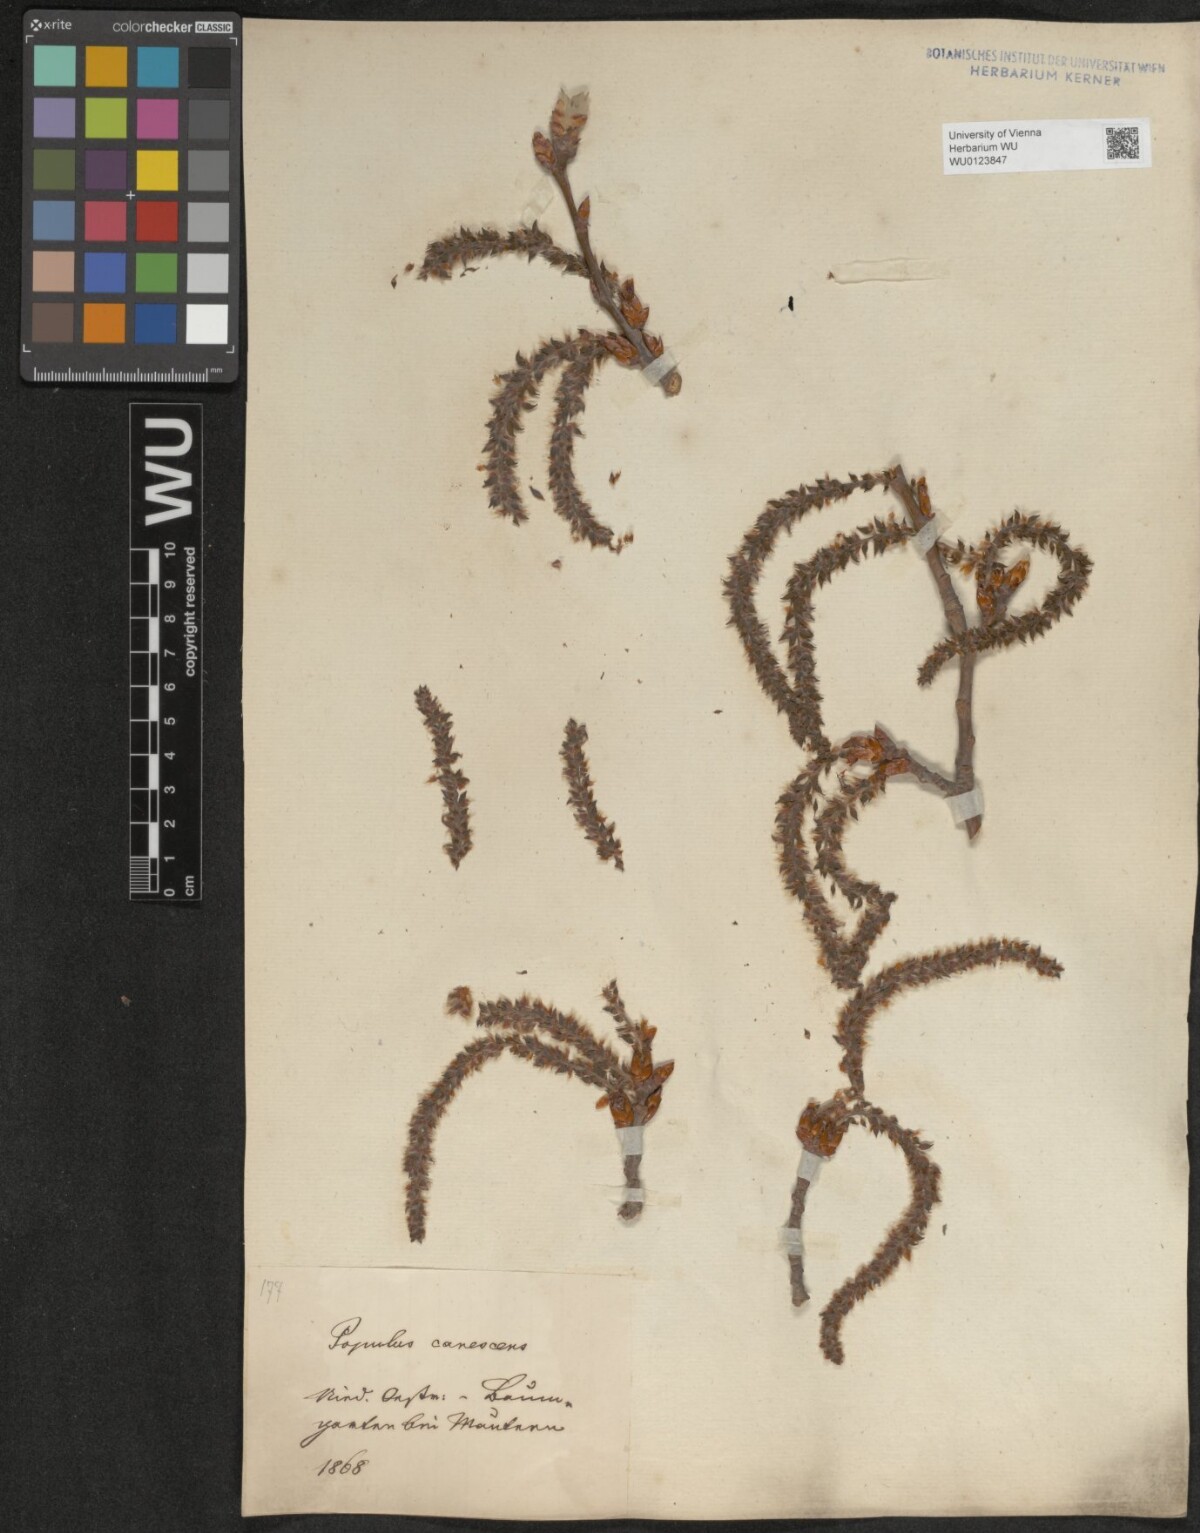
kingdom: Plantae
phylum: Tracheophyta
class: Magnoliopsida
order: Malpighiales
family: Salicaceae
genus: Populus
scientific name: Populus canescens
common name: Gray poplar
